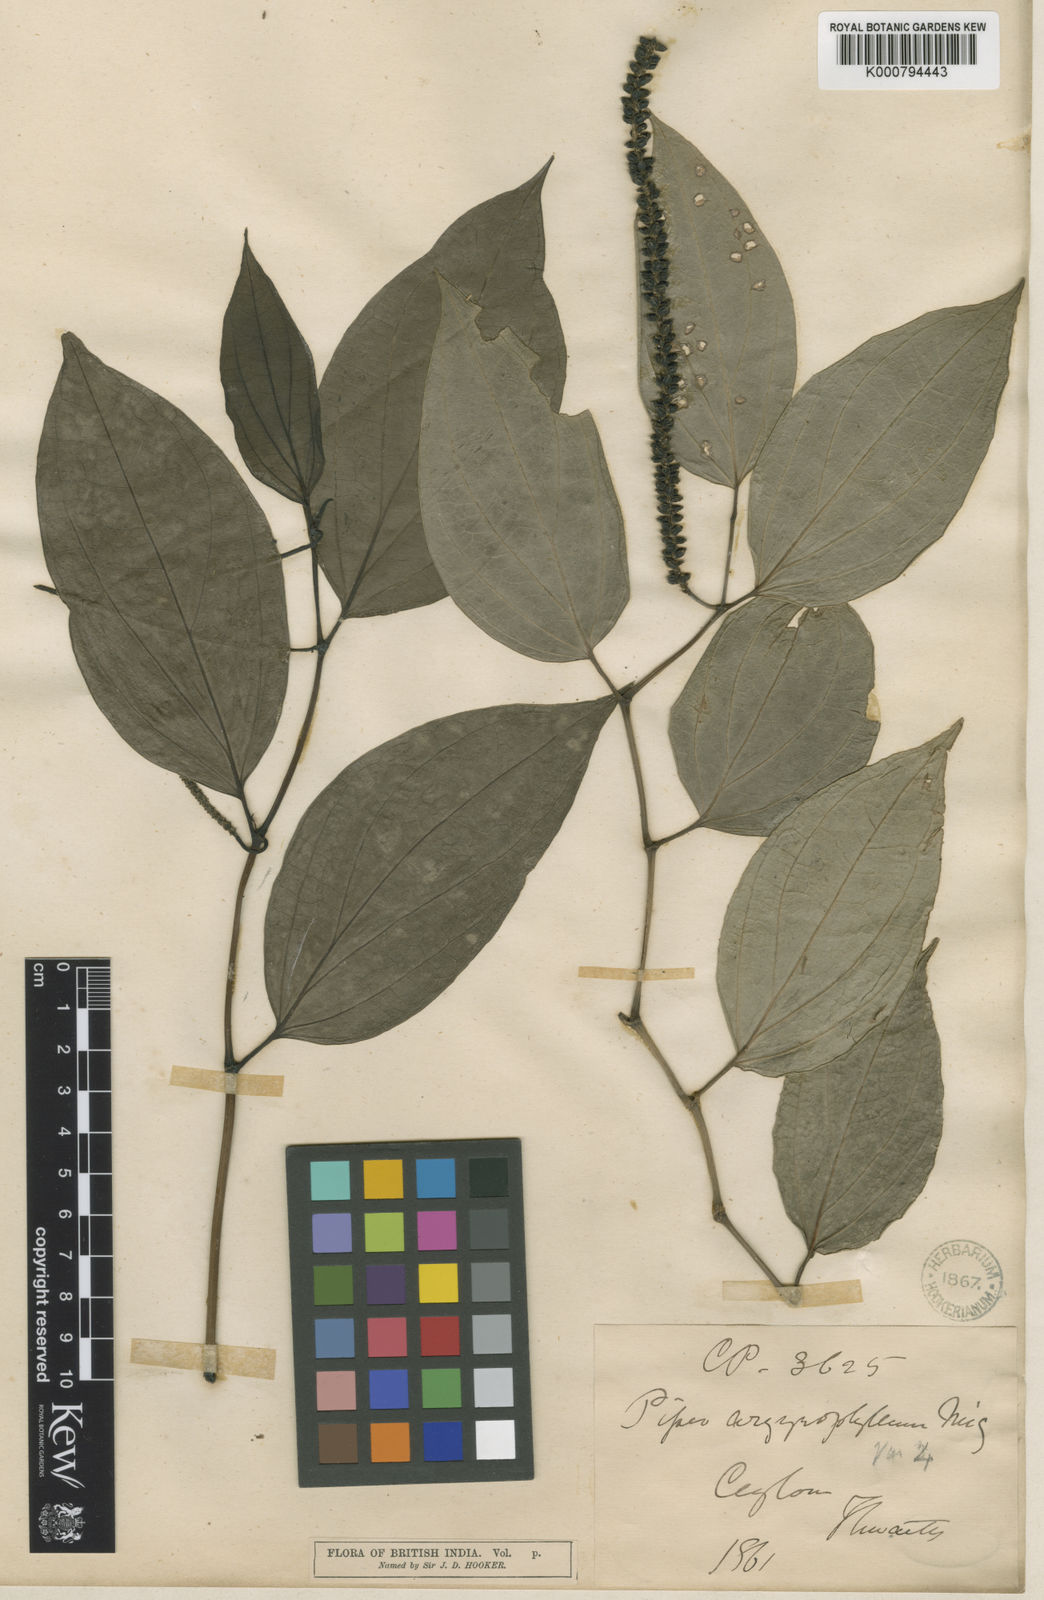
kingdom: Plantae
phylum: Tracheophyta
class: Magnoliopsida
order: Piperales
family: Piperaceae
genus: Piper
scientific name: Piper argyrophyllum
